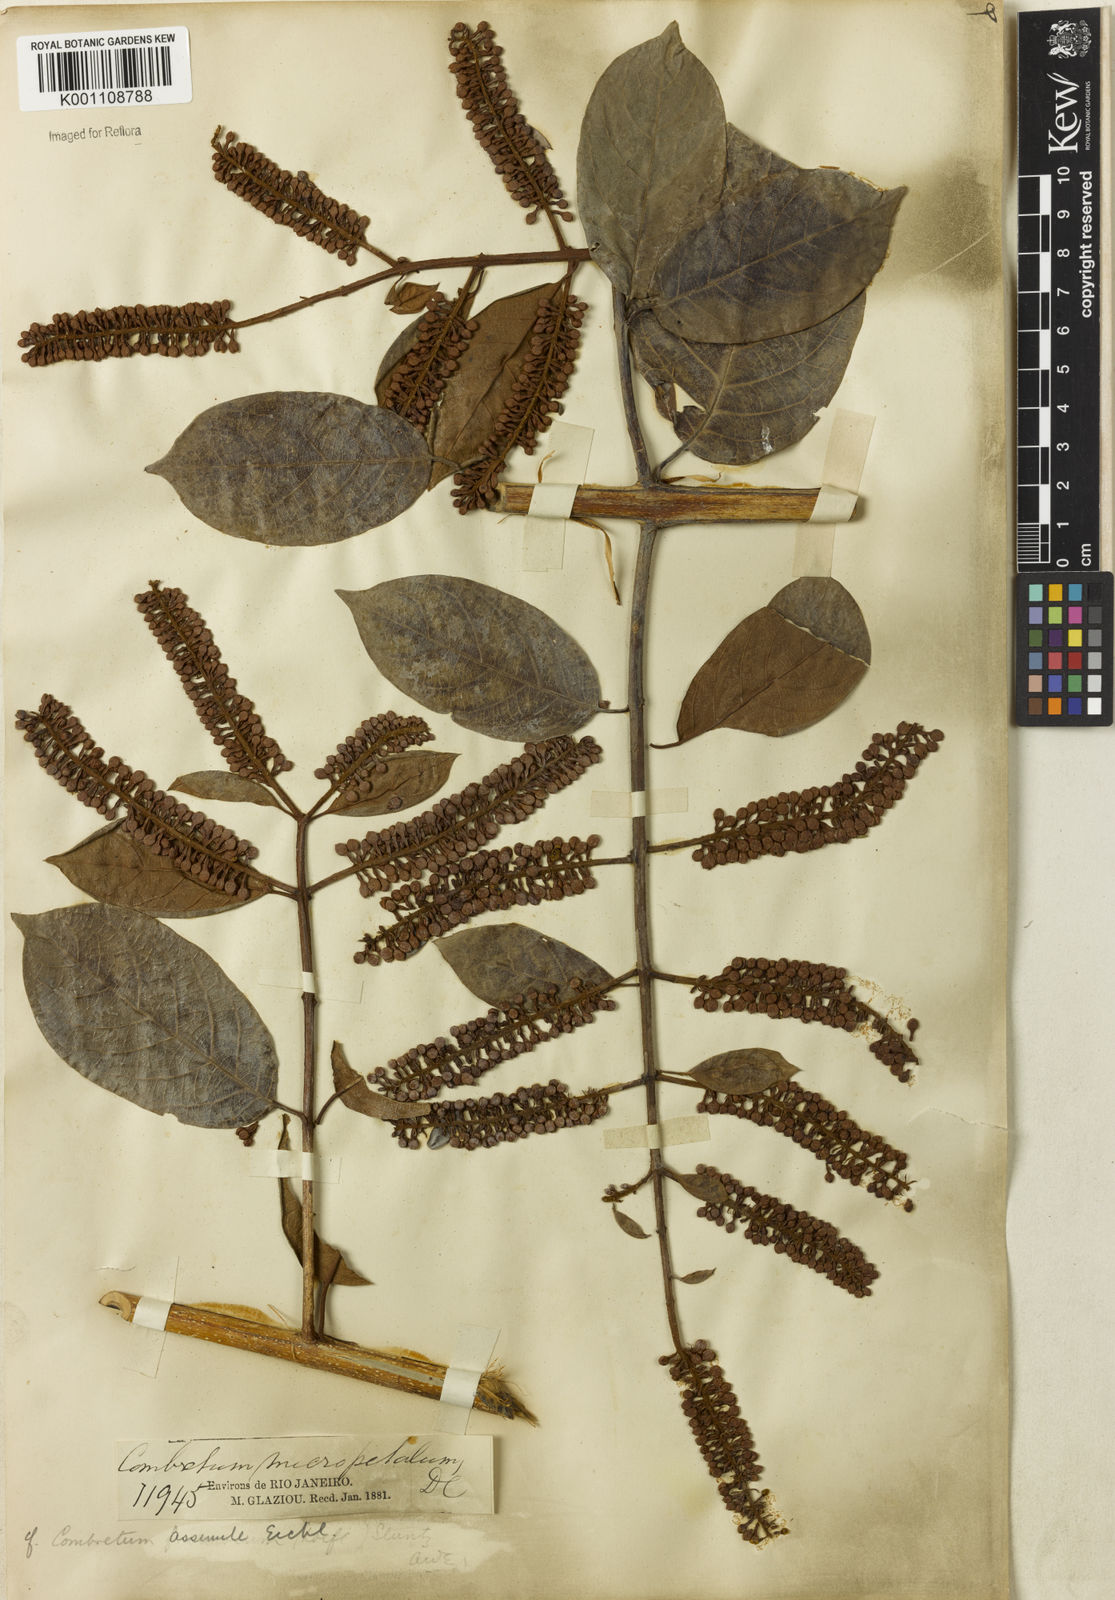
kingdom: Plantae
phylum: Tracheophyta
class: Magnoliopsida
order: Myrtales
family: Combretaceae
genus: Combretum
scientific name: Combretum assimile
